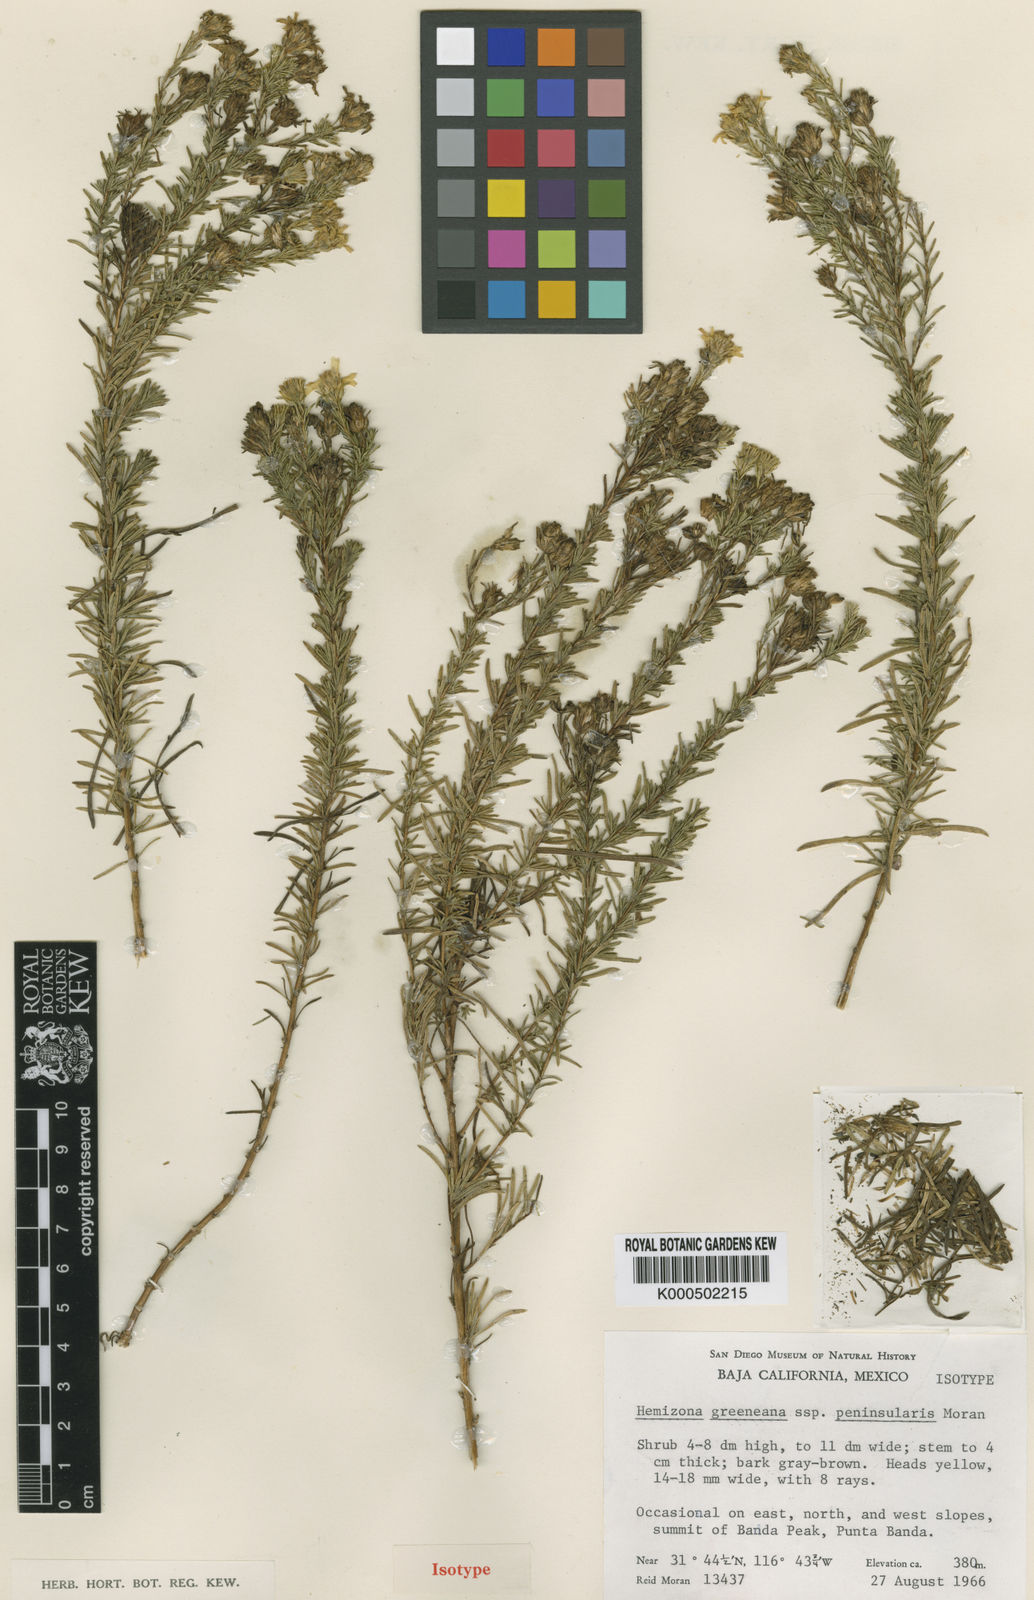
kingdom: Plantae
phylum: Tracheophyta
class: Magnoliopsida
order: Asterales
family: Asteraceae
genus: Deinandra
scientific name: Deinandra peninsularis
